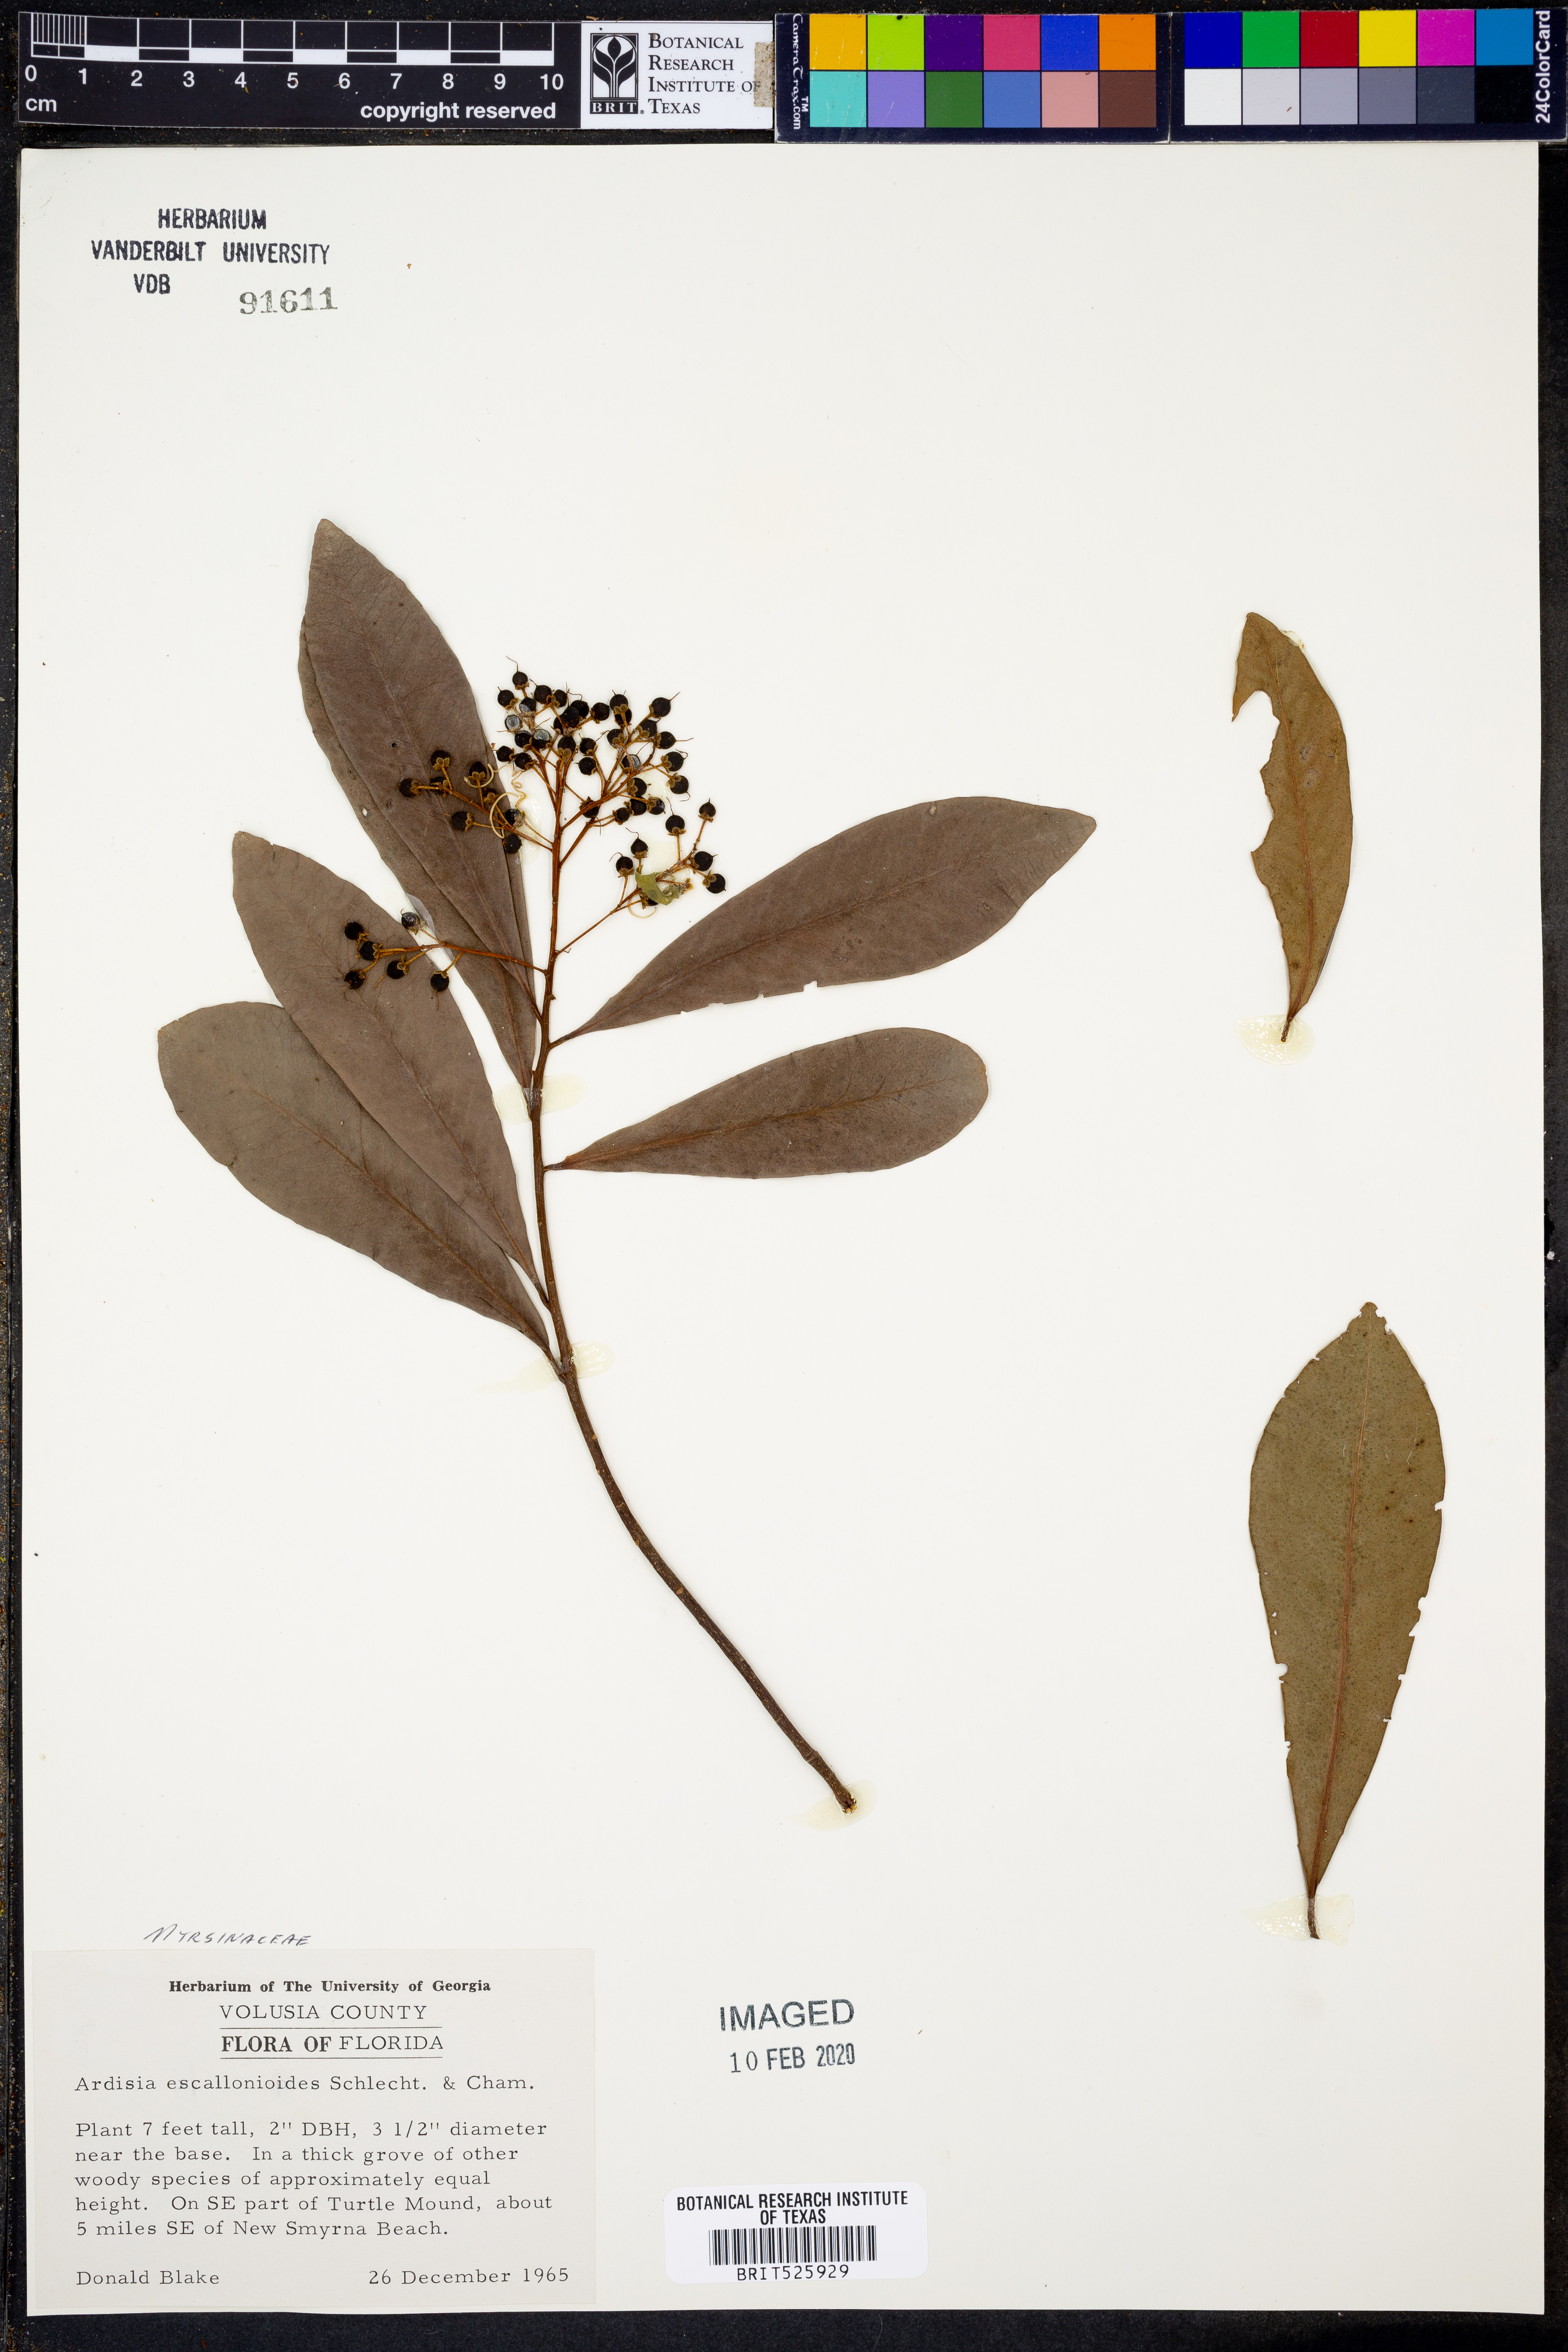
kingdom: Plantae
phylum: Tracheophyta
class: Magnoliopsida
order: Ericales
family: Primulaceae
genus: Ardisia
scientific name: Ardisia escallonioides
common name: Island marlberry
